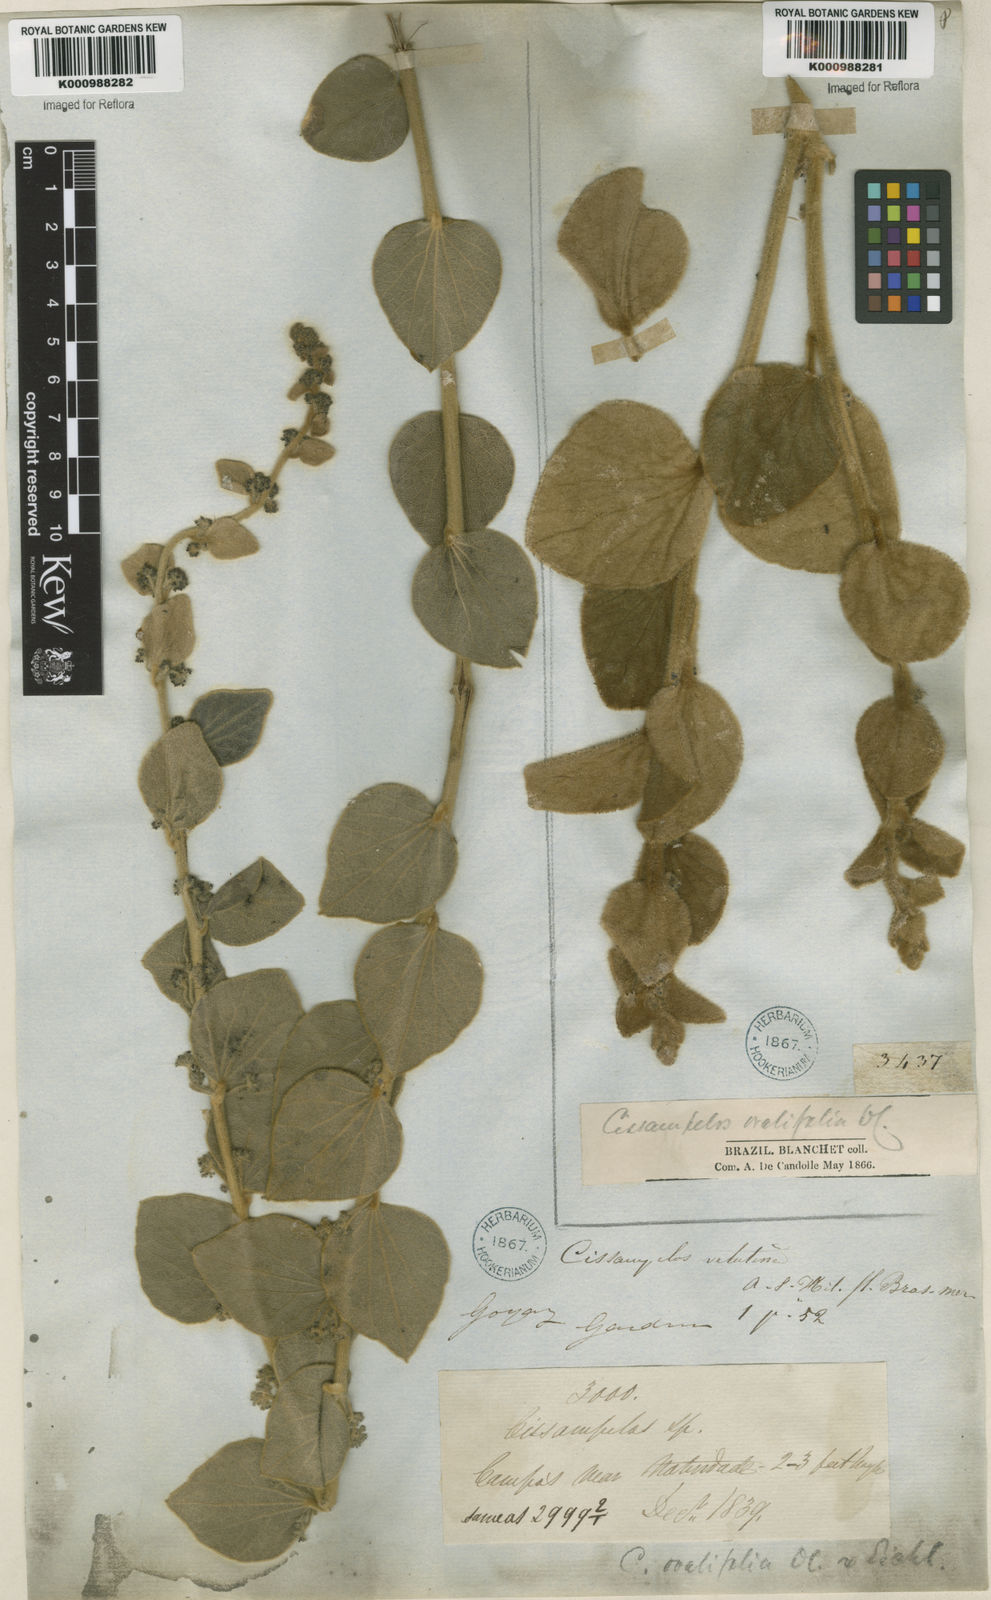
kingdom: Plantae
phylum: Tracheophyta
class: Magnoliopsida
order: Ranunculales
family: Menispermaceae
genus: Cissampelos
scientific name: Cissampelos ovalifolia
